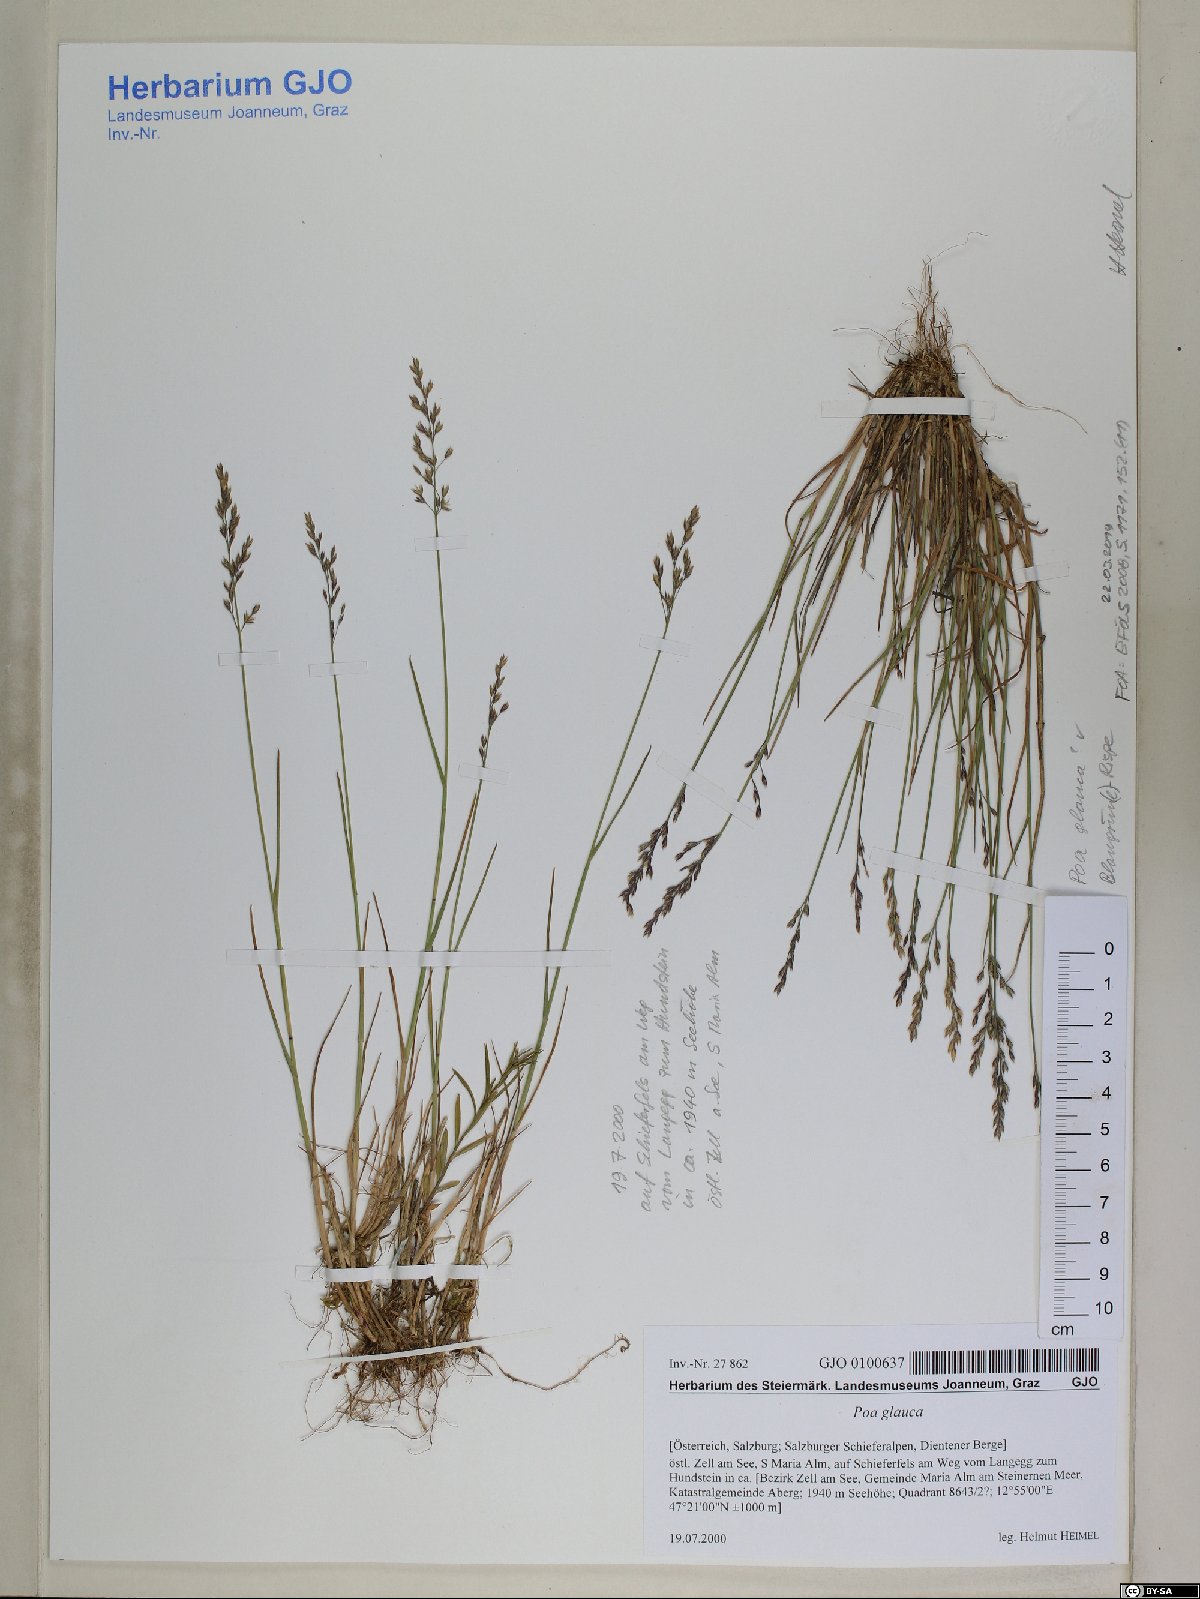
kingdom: Plantae
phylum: Tracheophyta
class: Liliopsida
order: Poales
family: Poaceae
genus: Poa
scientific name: Poa glauca
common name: Glaucous bluegrass
